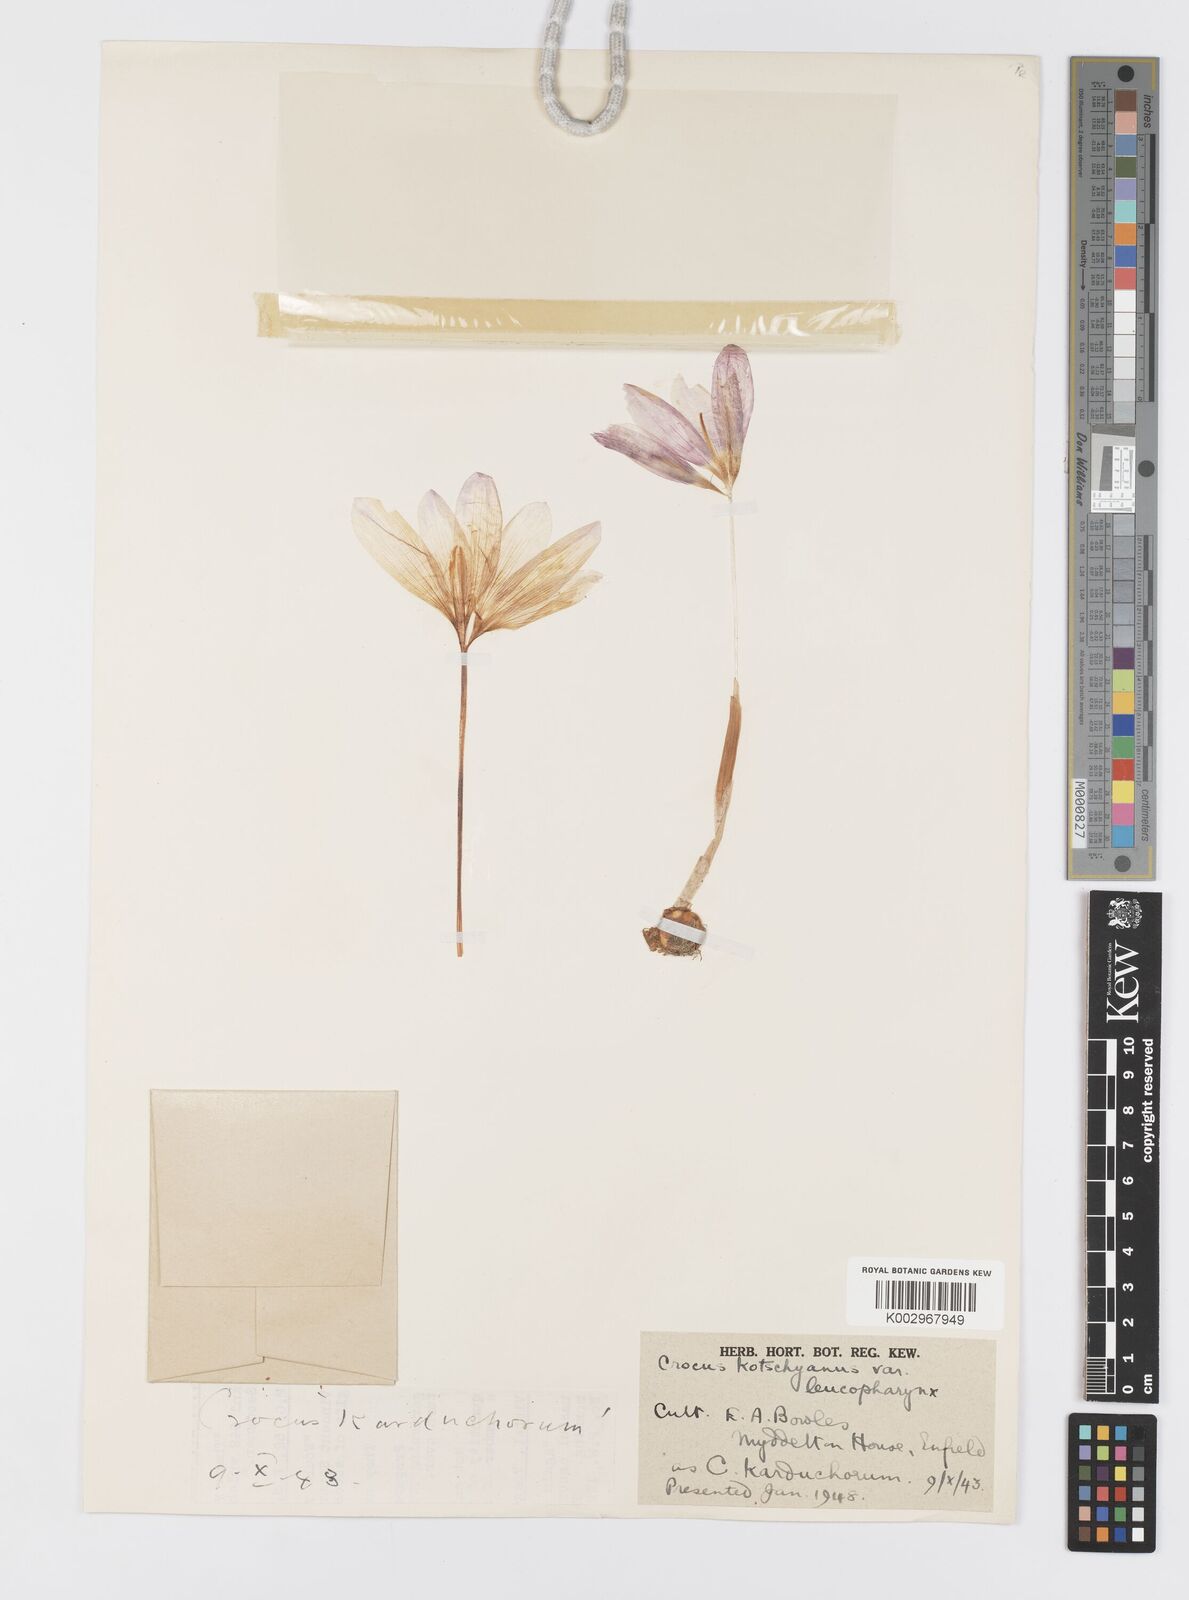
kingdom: Plantae
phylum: Tracheophyta
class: Liliopsida
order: Asparagales
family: Iridaceae
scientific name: Iridaceae
